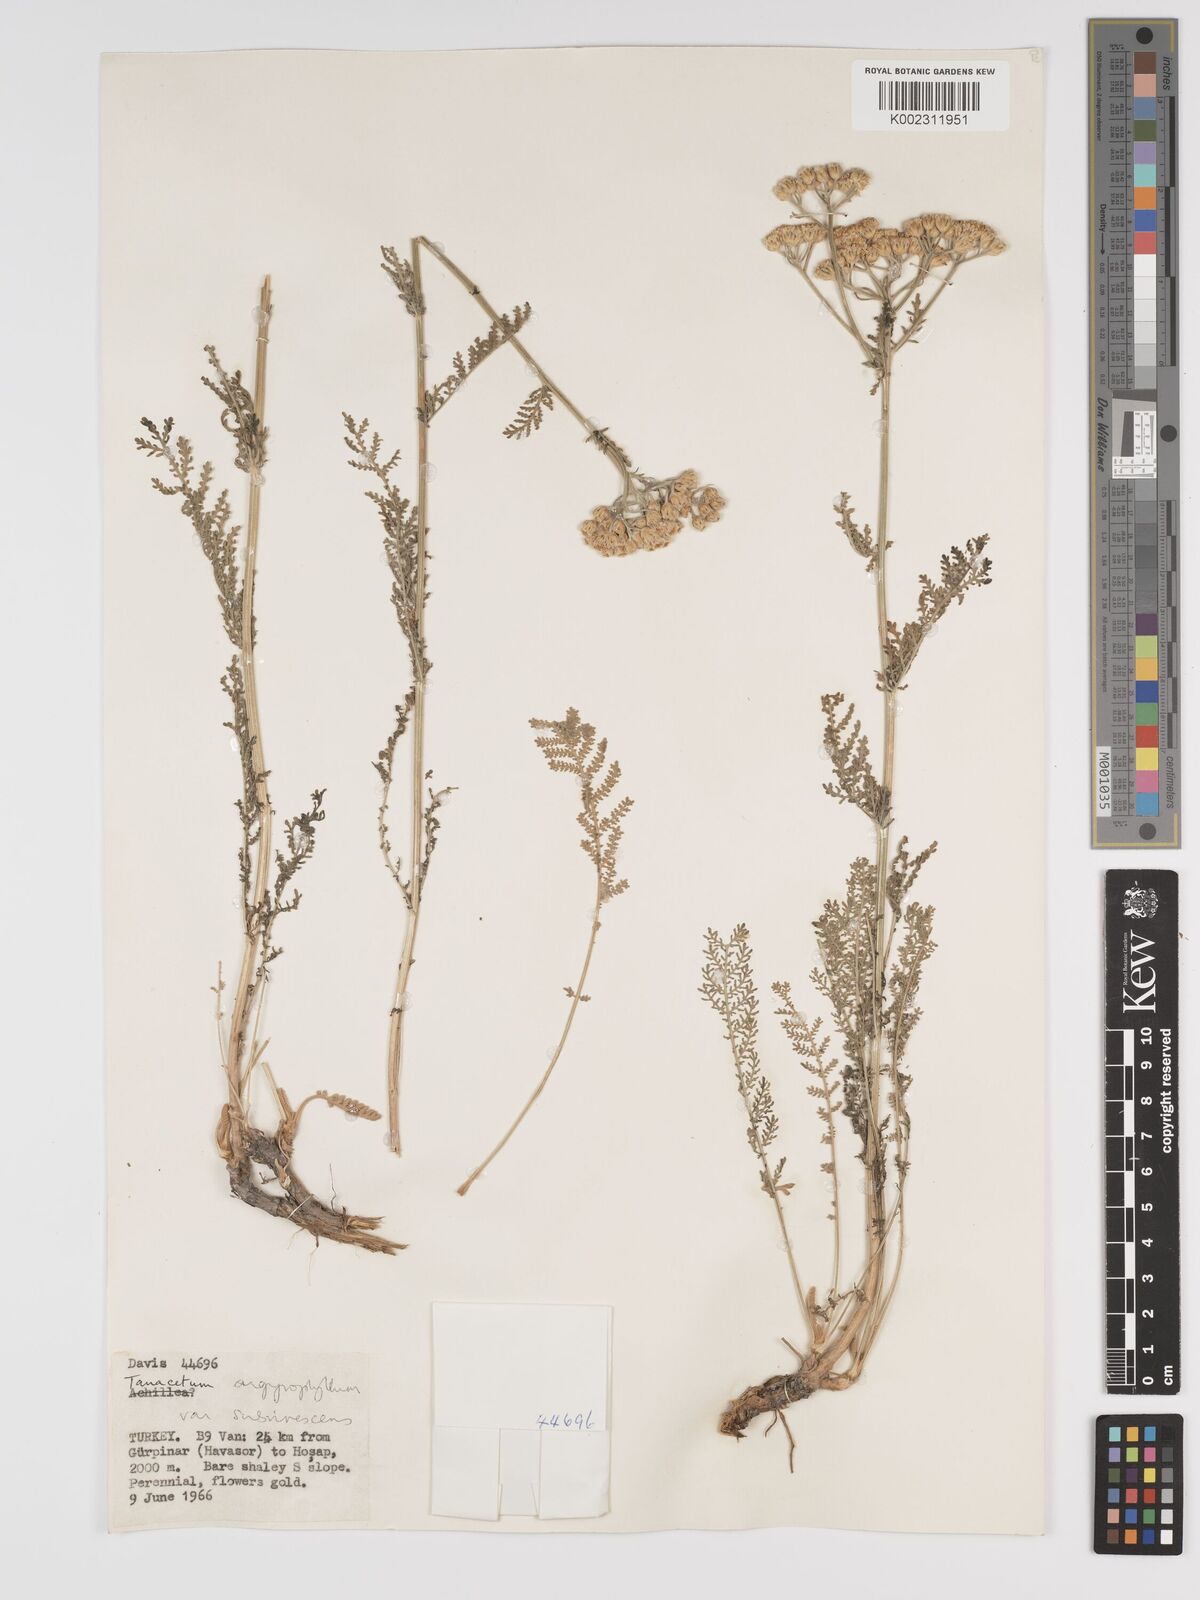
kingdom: Plantae
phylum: Tracheophyta
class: Magnoliopsida
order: Asterales
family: Asteraceae
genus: Tanacetum
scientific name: Tanacetum polycephalum
